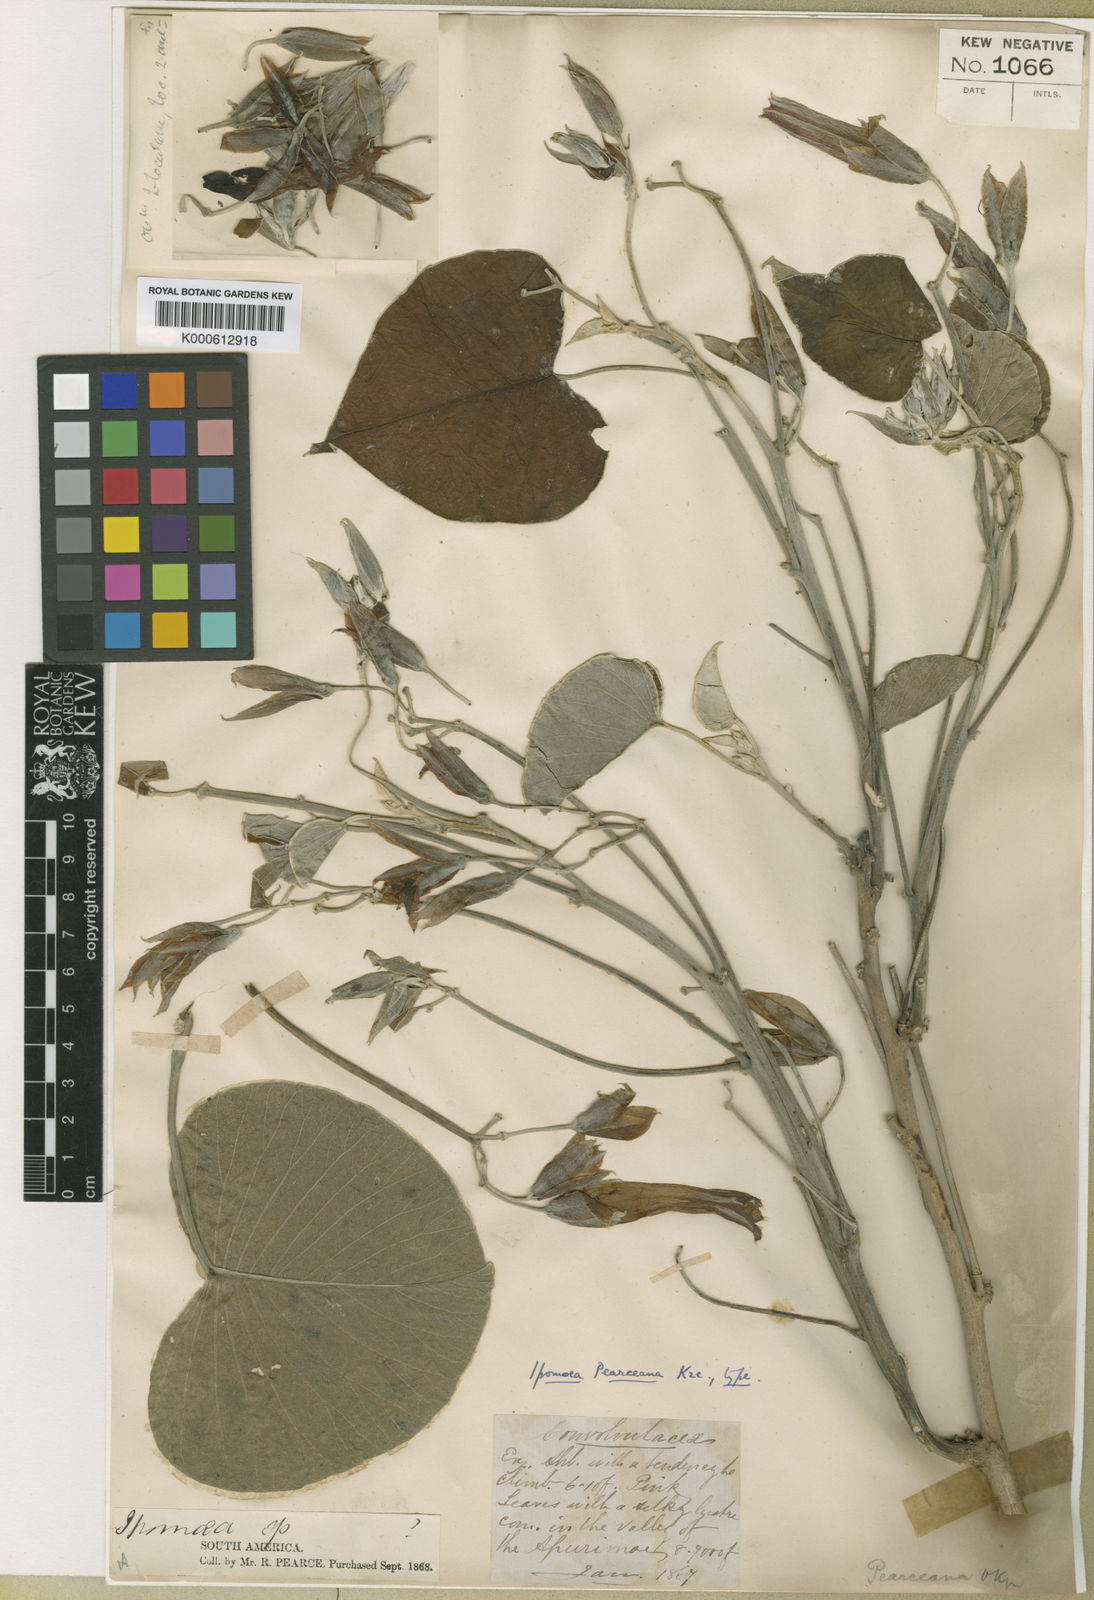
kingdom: Plantae
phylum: Tracheophyta
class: Magnoliopsida
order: Solanales
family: Convolvulaceae
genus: Ipomoea
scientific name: Ipomoea pearceana
